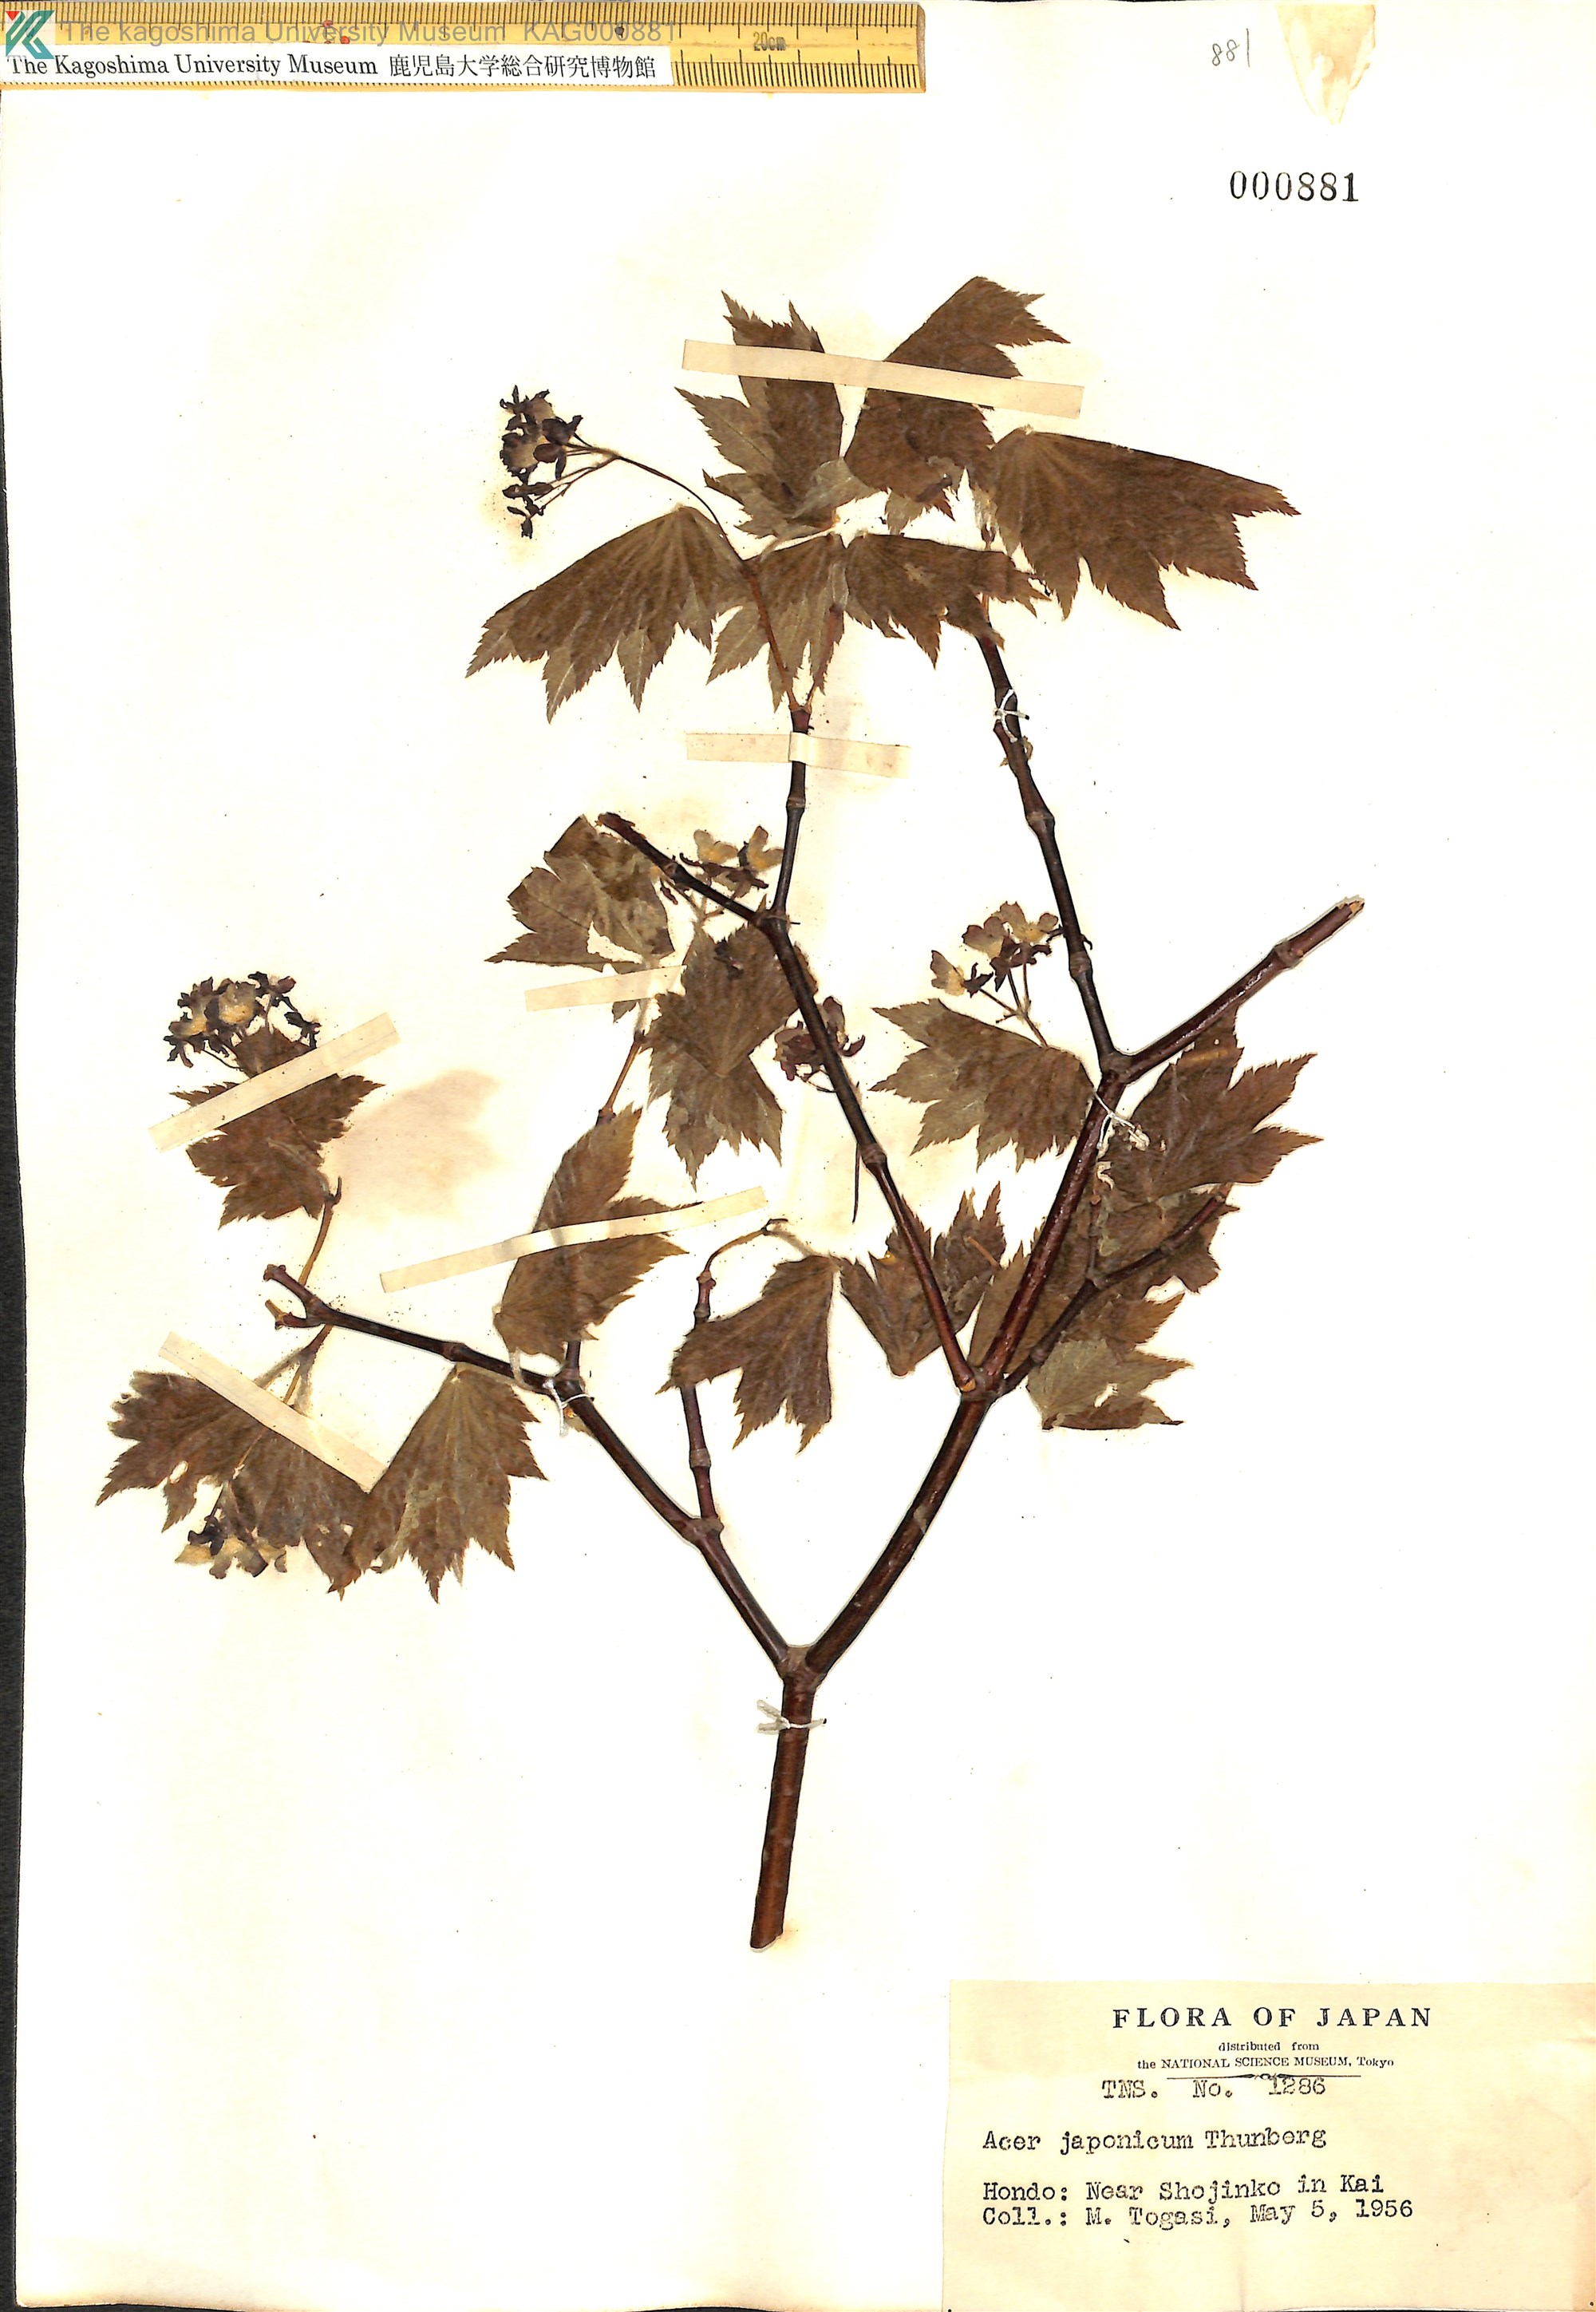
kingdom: Plantae
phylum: Tracheophyta
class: Magnoliopsida
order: Sapindales
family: Sapindaceae
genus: Acer
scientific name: Acer japonicum
